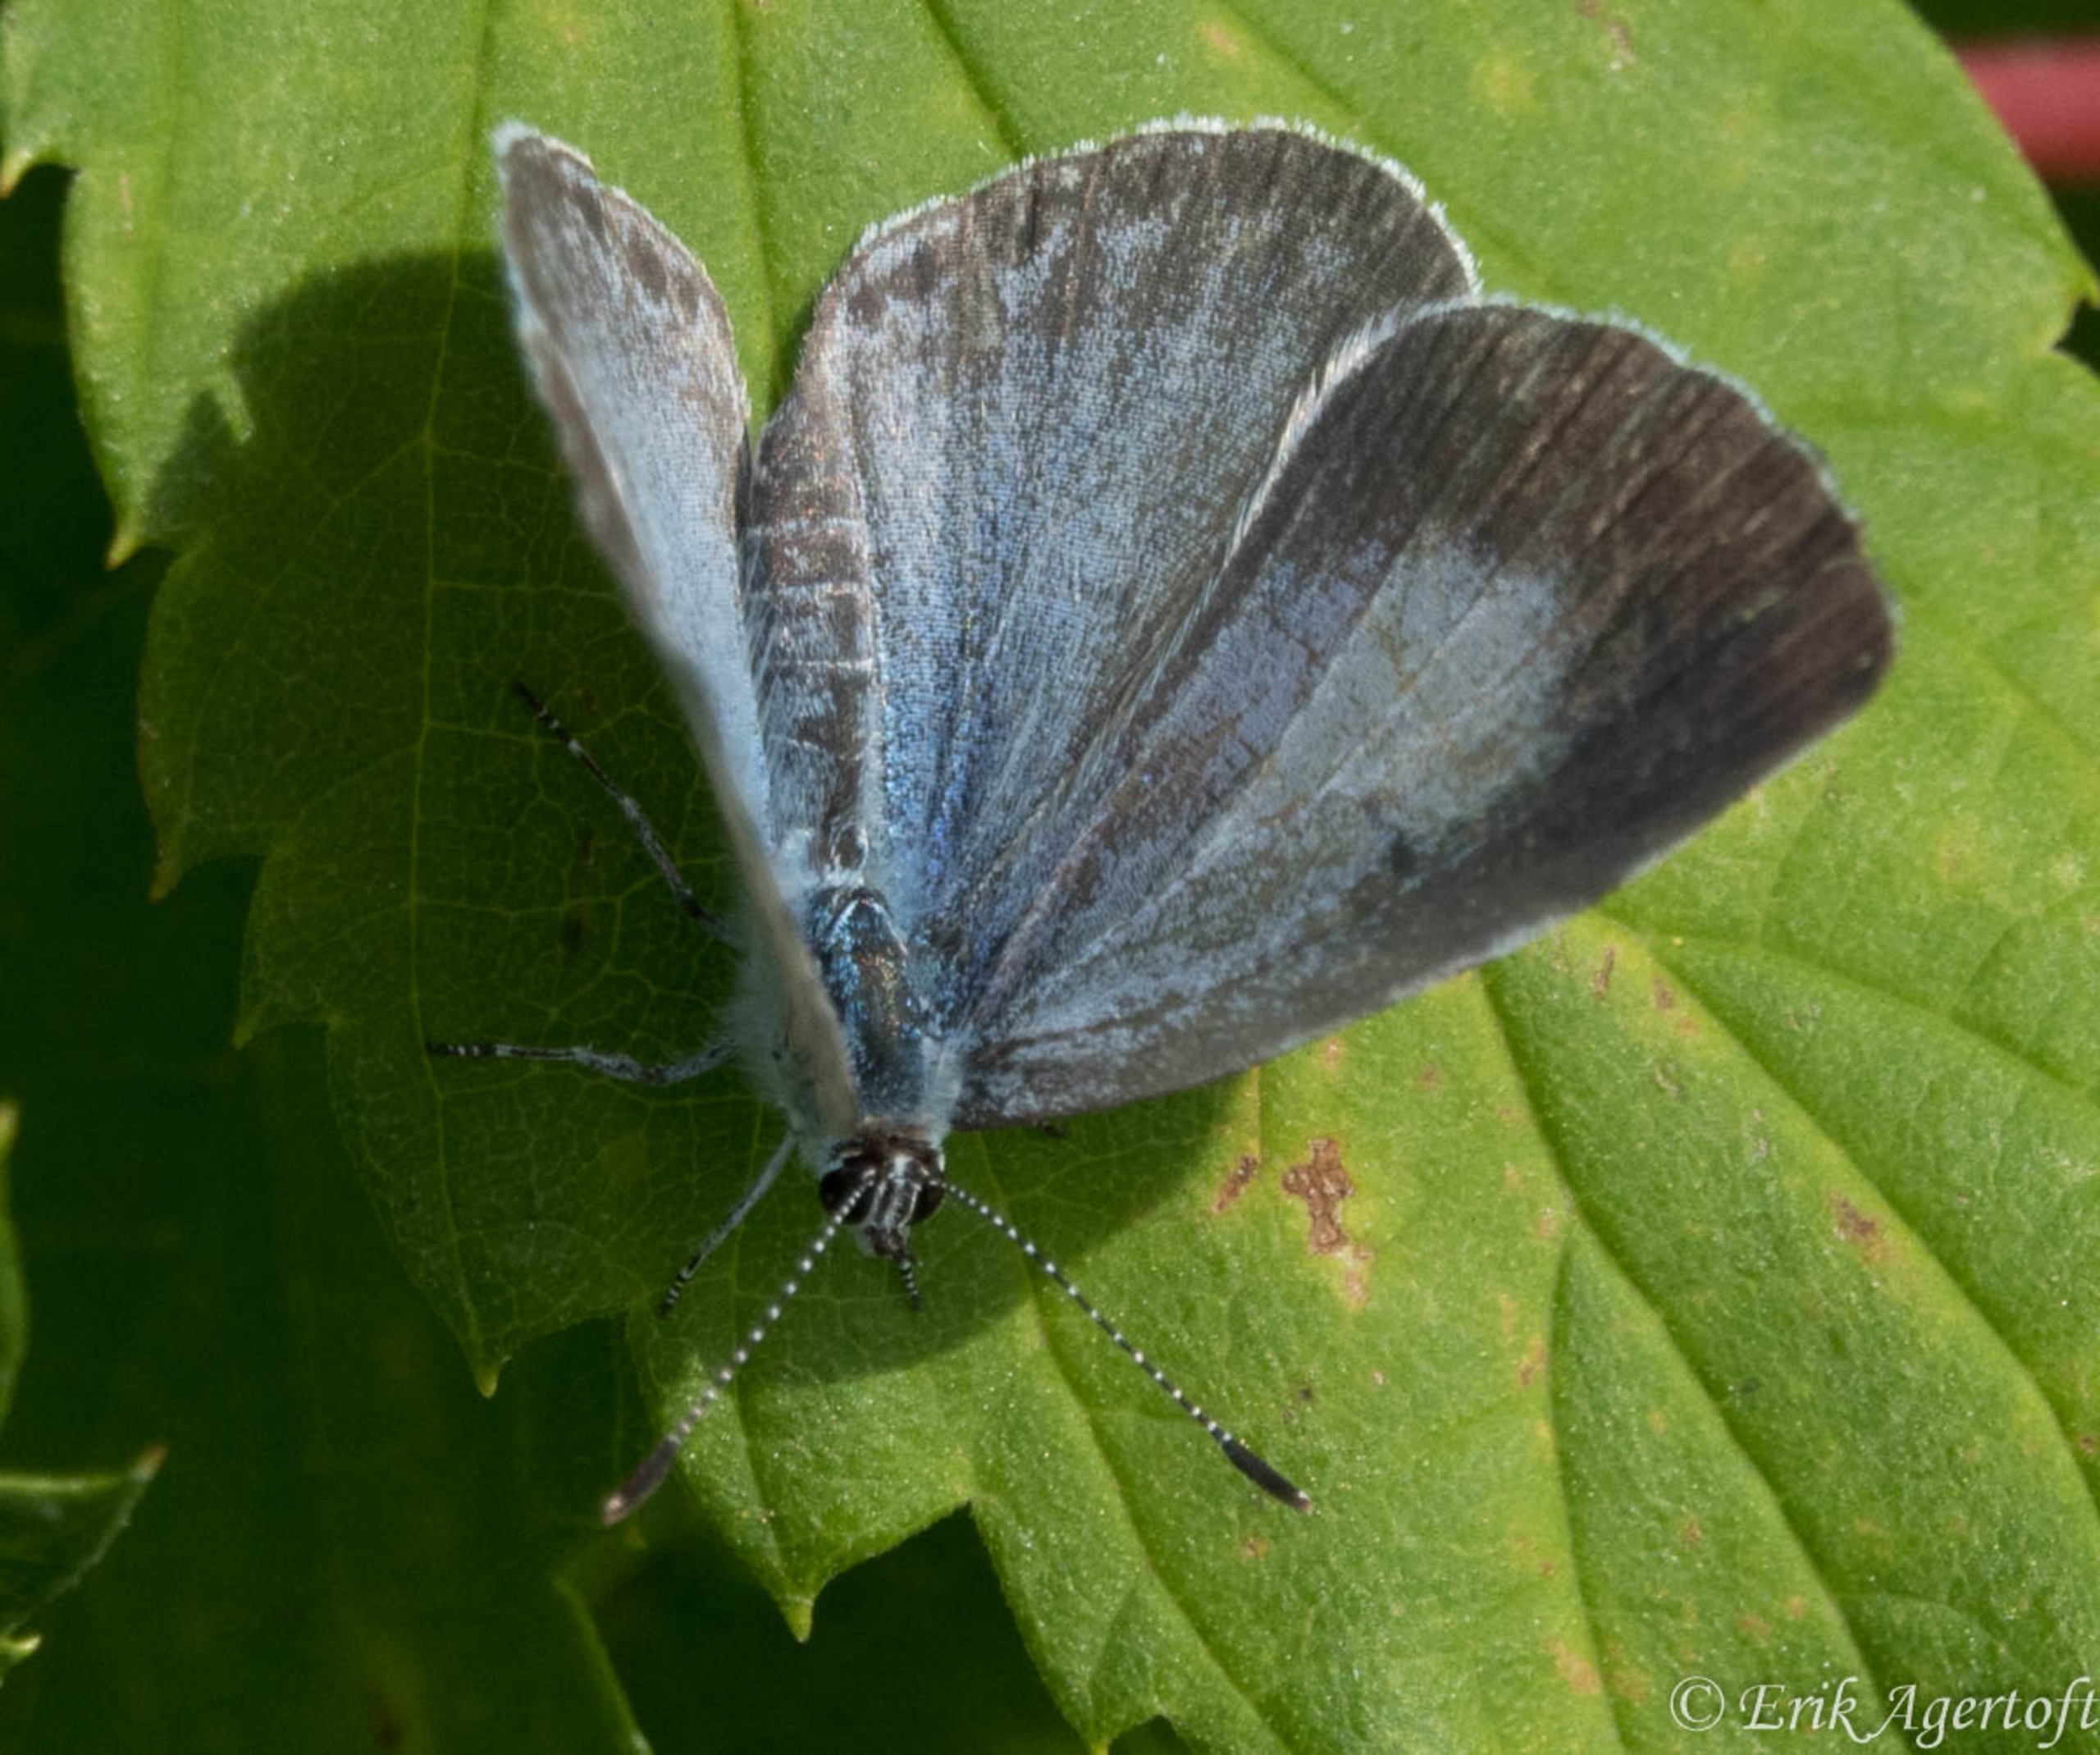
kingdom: Animalia
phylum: Arthropoda
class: Insecta
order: Lepidoptera
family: Lycaenidae
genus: Celastrina
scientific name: Celastrina argiolus
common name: Skovblåfugl
